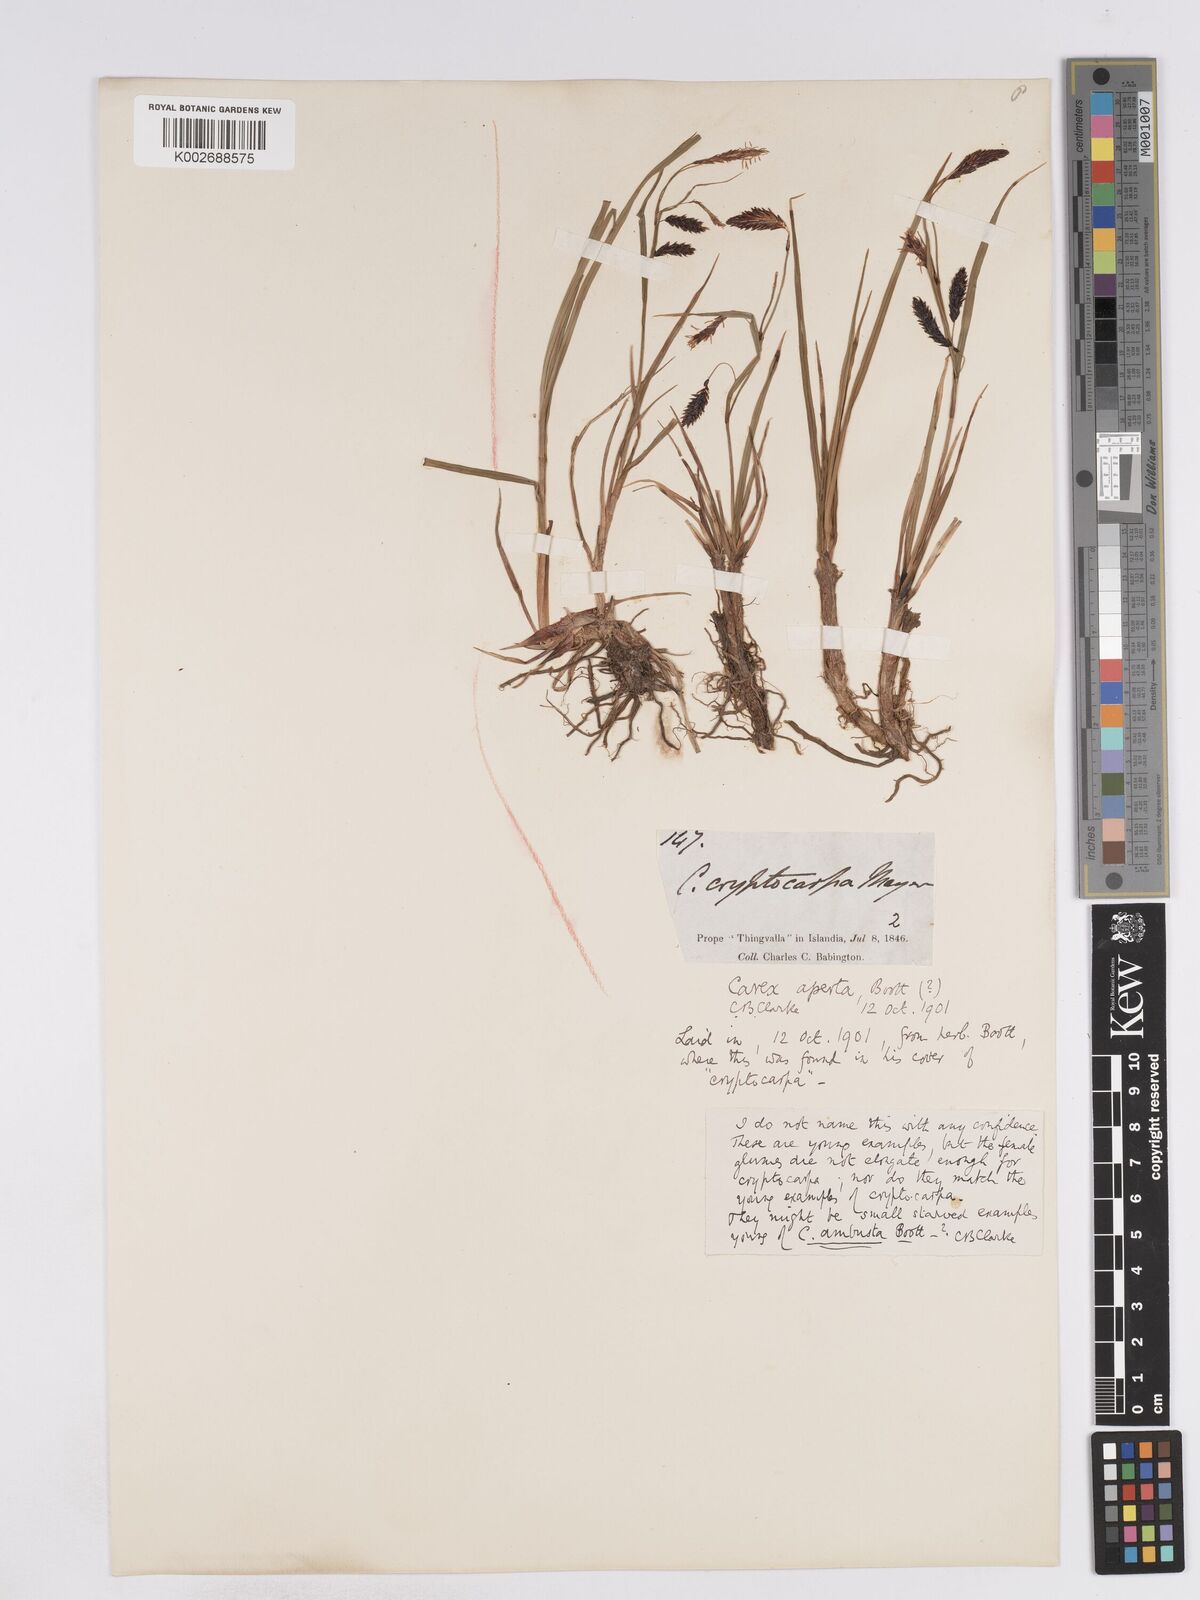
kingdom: Plantae
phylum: Tracheophyta
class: Liliopsida
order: Poales
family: Cyperaceae
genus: Carex
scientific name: Carex lyngbyei
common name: Lyngbye's sedge
